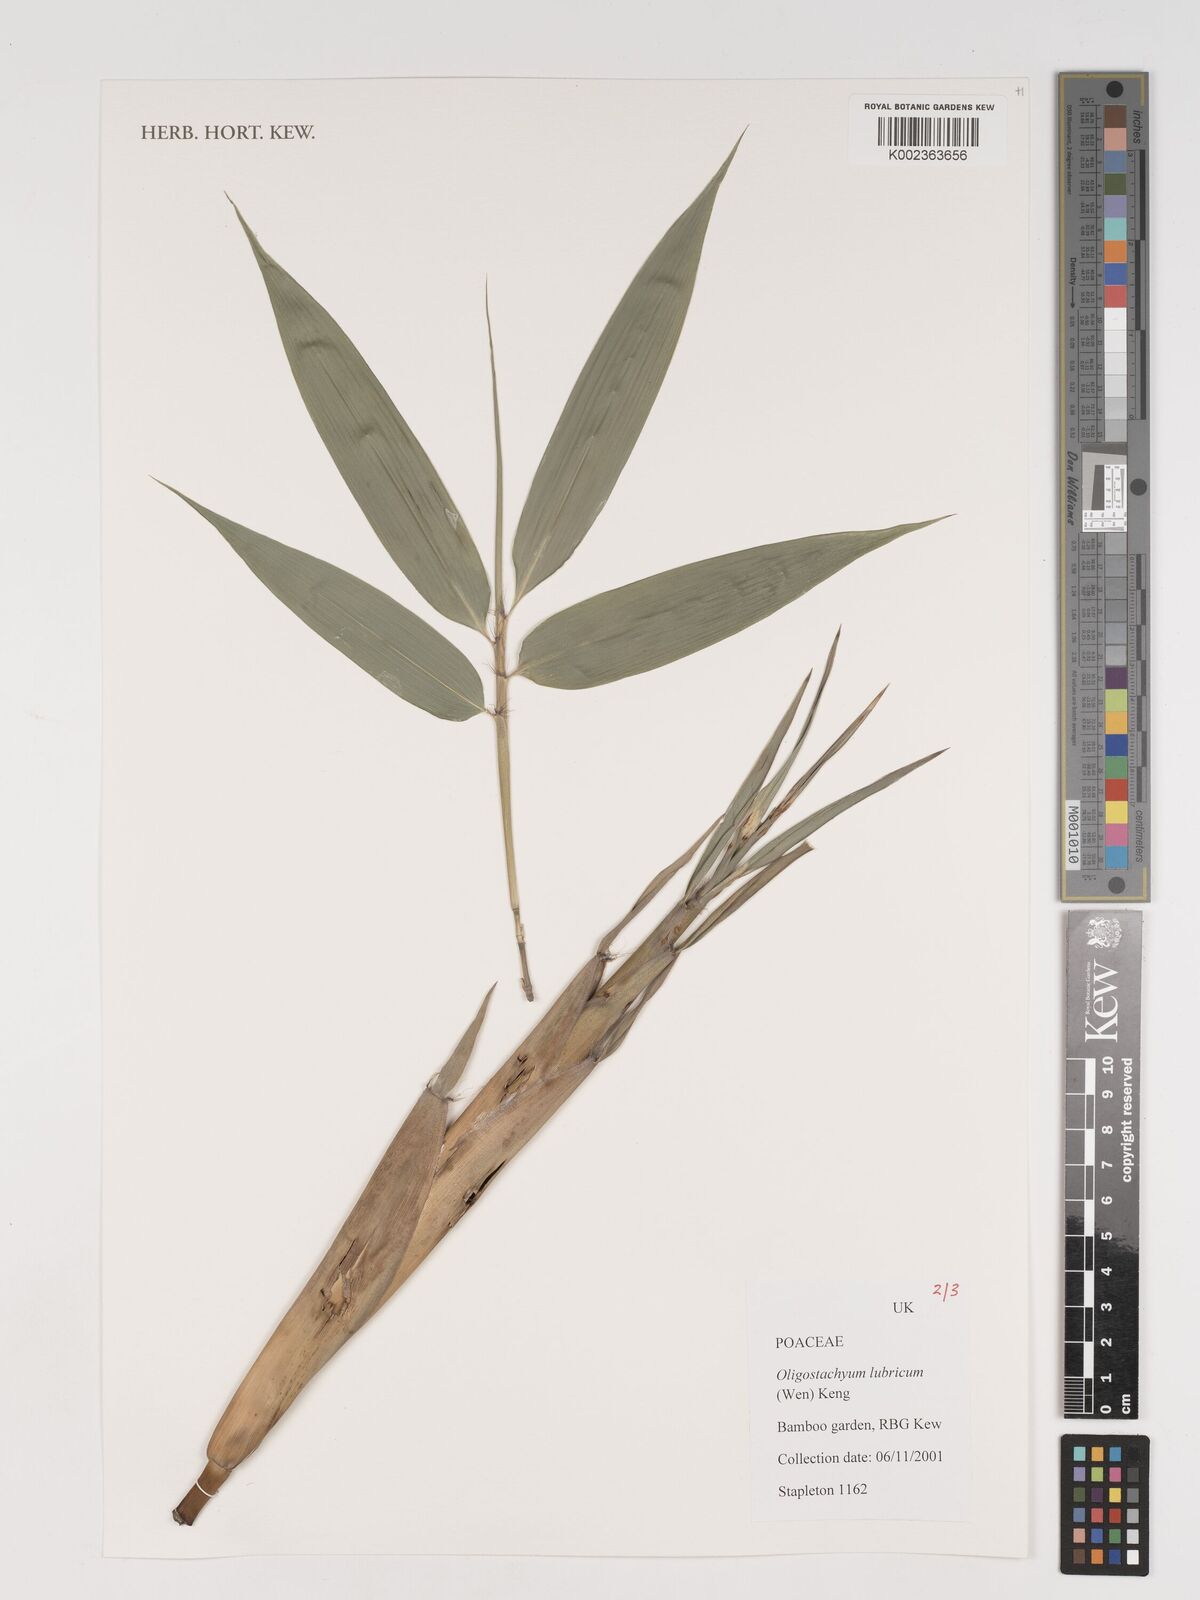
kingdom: Plantae
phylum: Tracheophyta
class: Liliopsida
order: Poales
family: Poaceae
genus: Oligostachyum
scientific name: Oligostachyum lubricum
